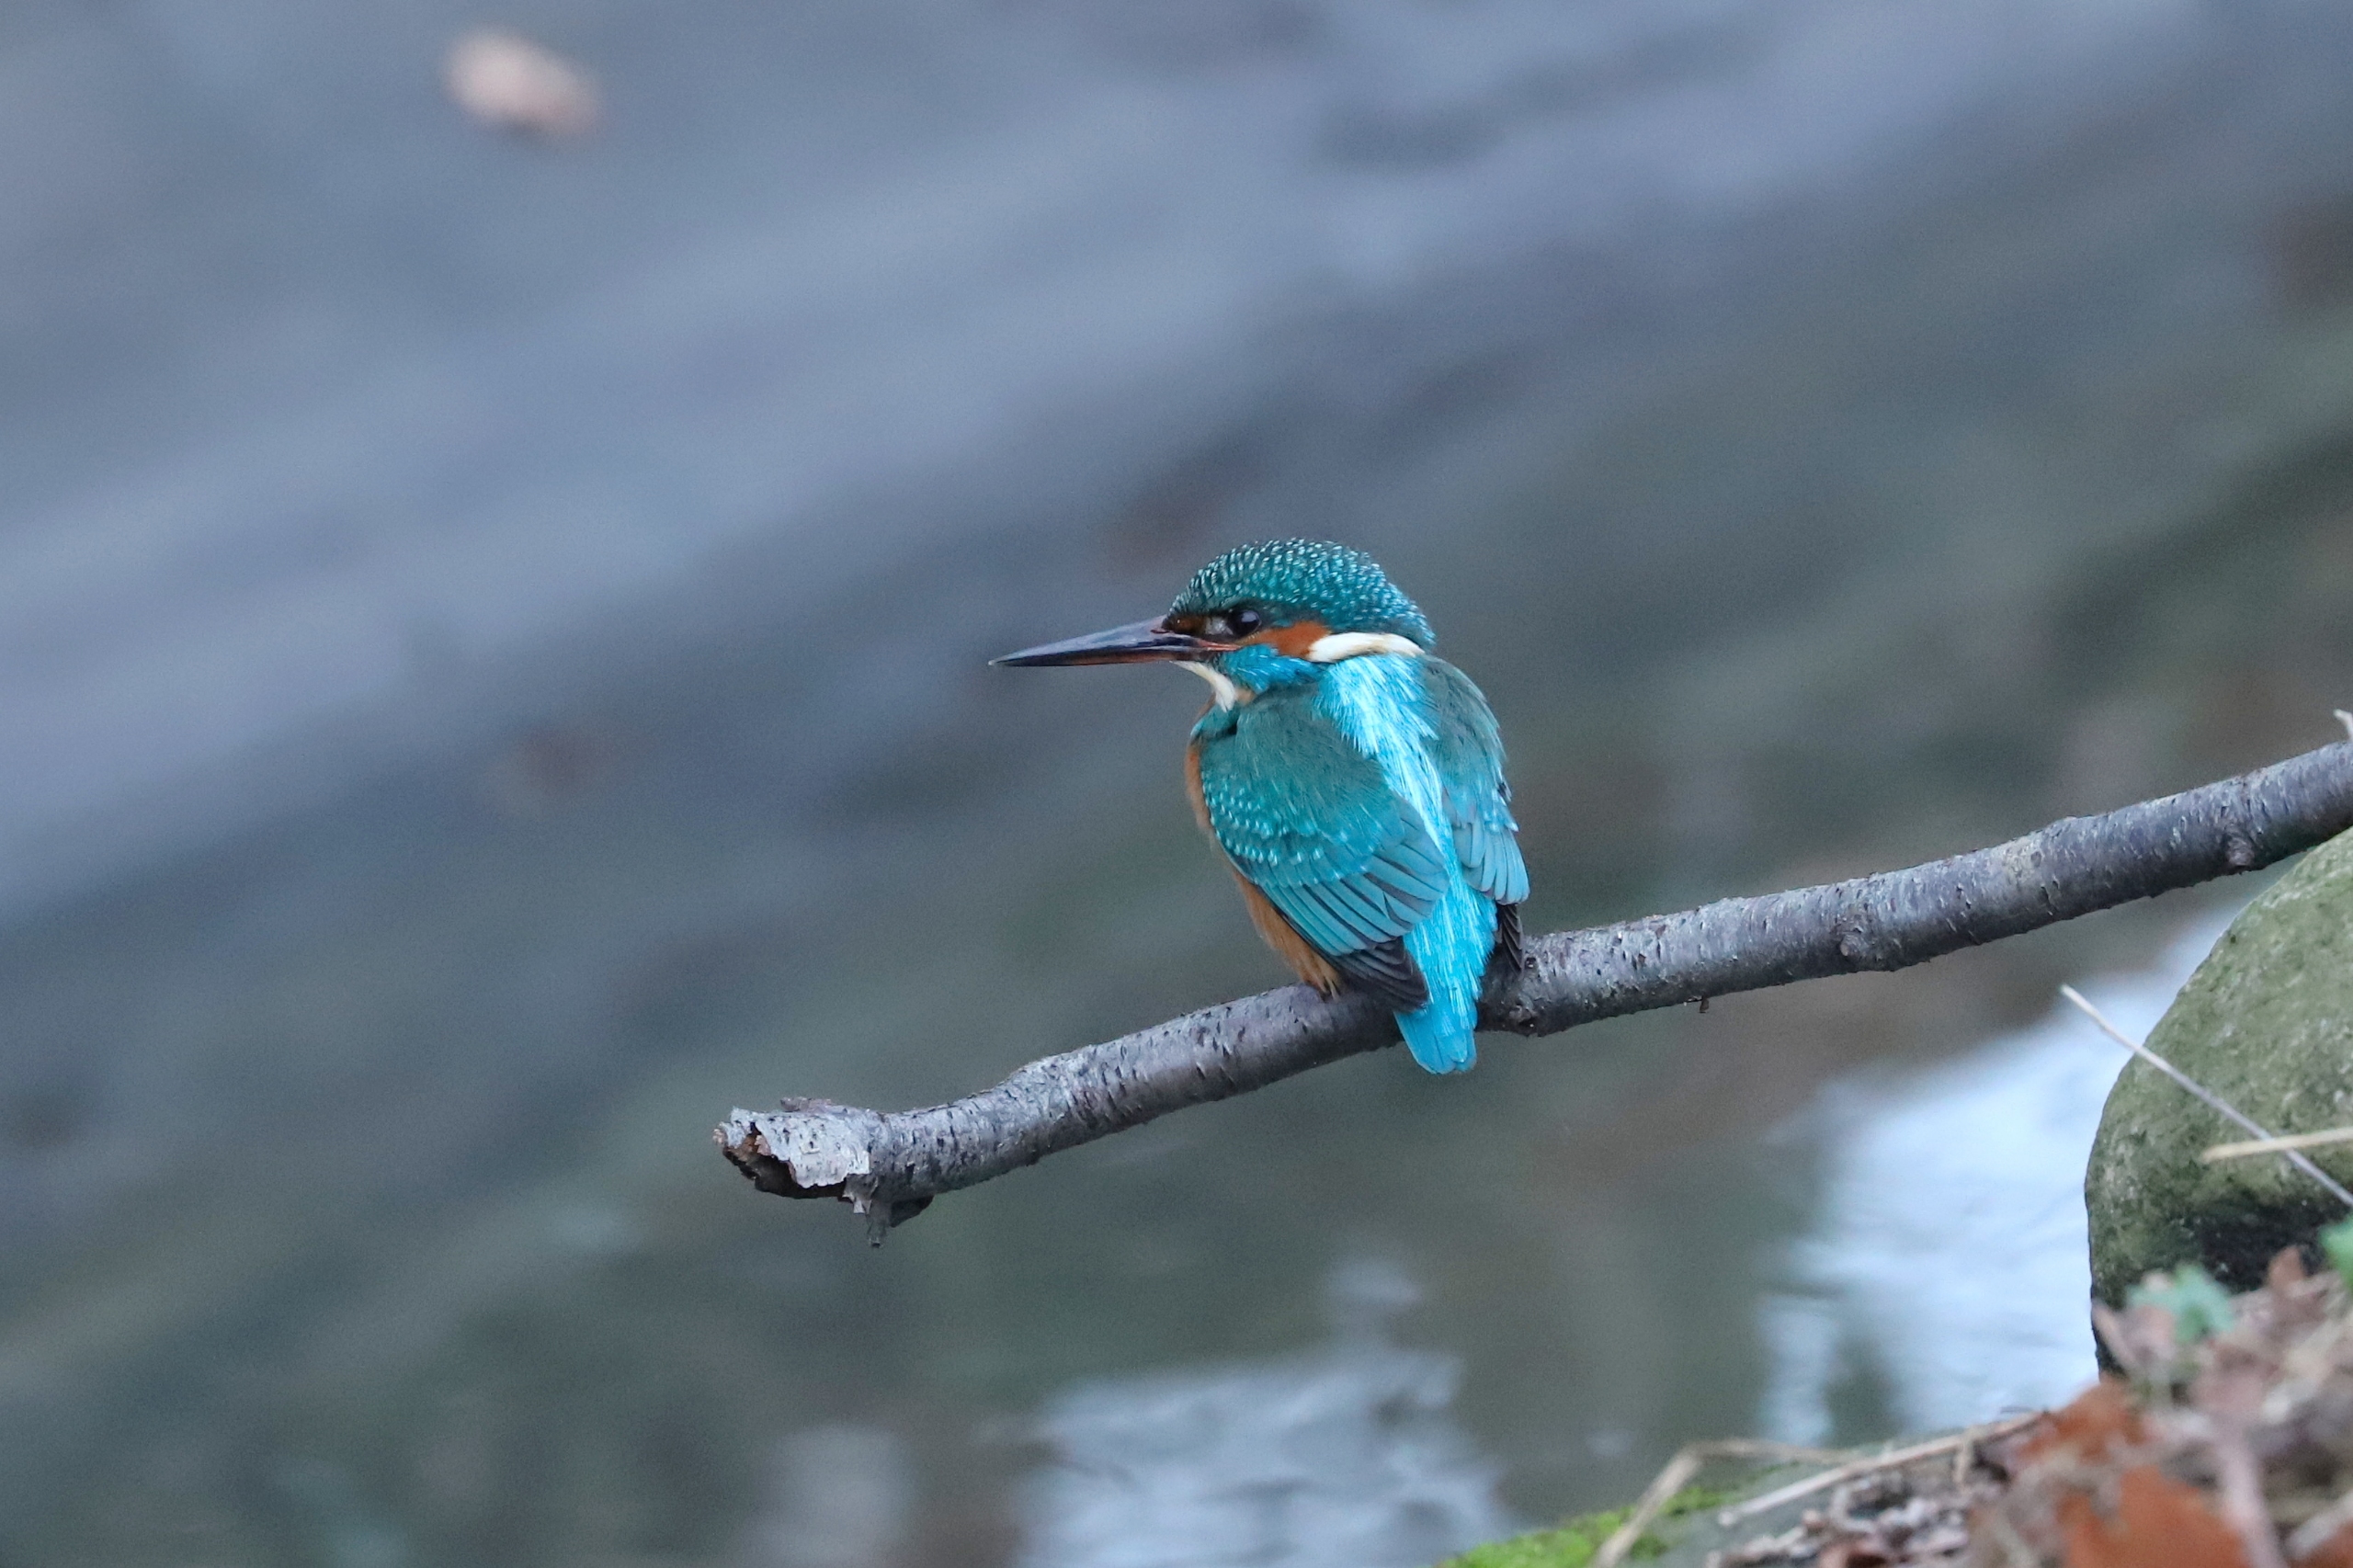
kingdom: Animalia
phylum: Chordata
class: Aves
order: Coraciiformes
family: Alcedinidae
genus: Alcedo
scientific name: Alcedo atthis
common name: Isfugl
